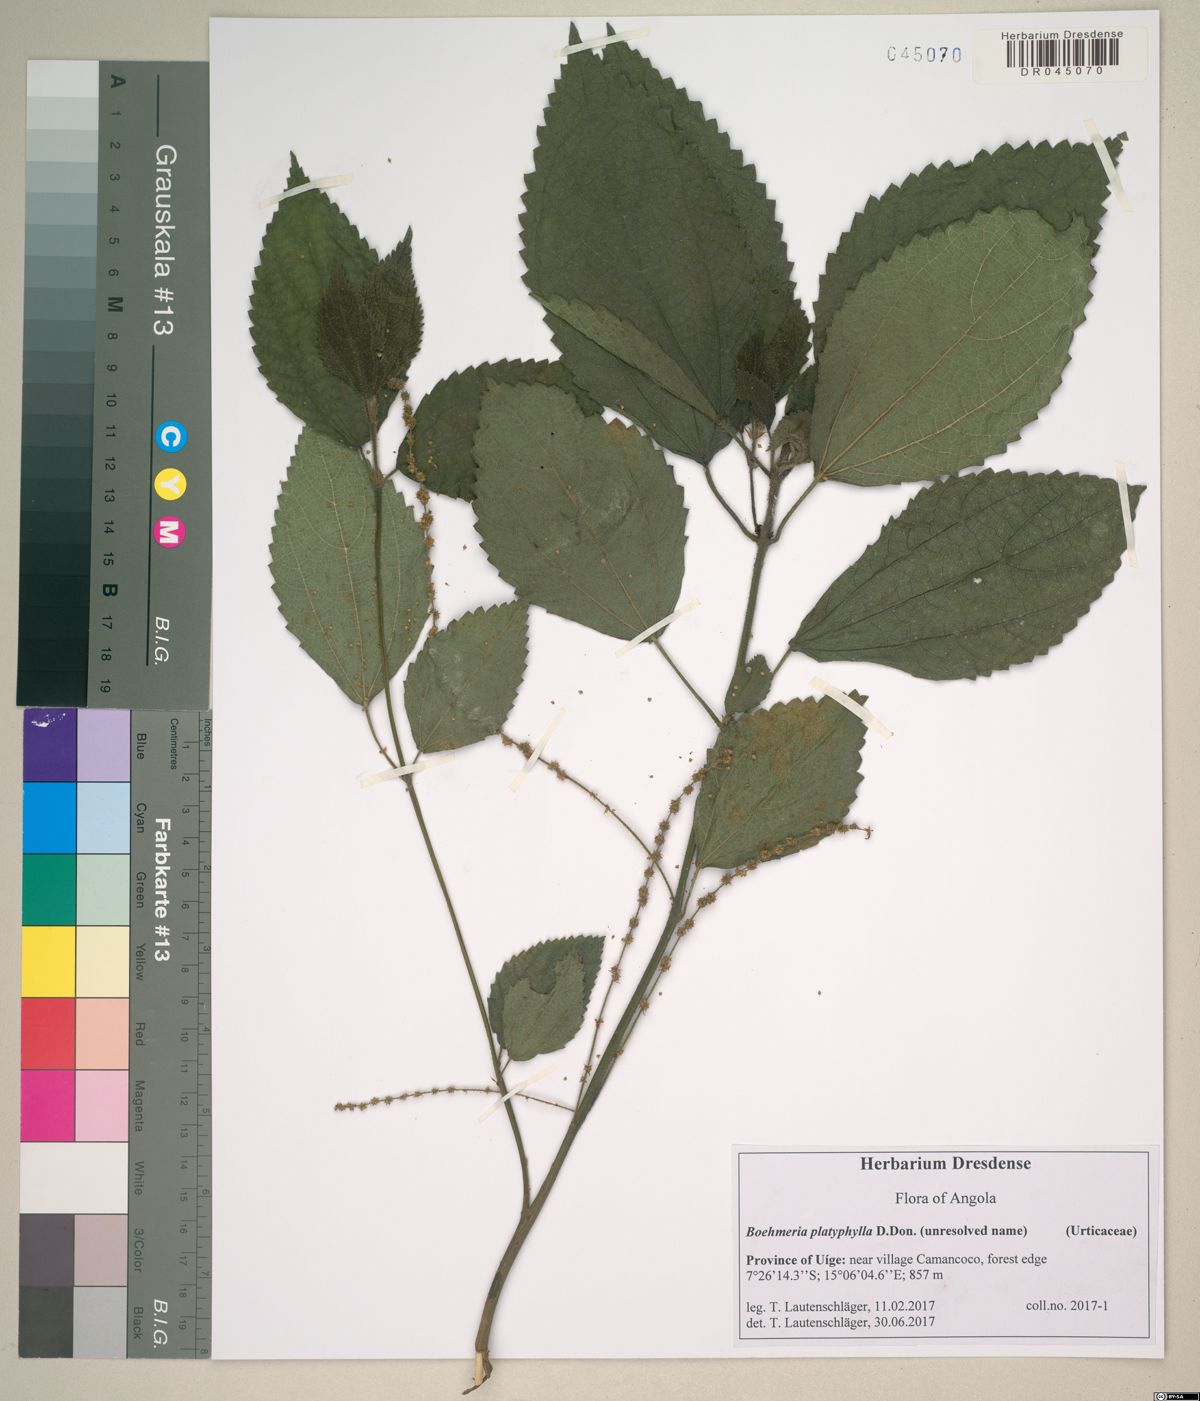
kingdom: Plantae
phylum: Tracheophyta
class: Magnoliopsida
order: Rosales
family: Urticaceae
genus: Boehmeria
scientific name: Boehmeria virgata
